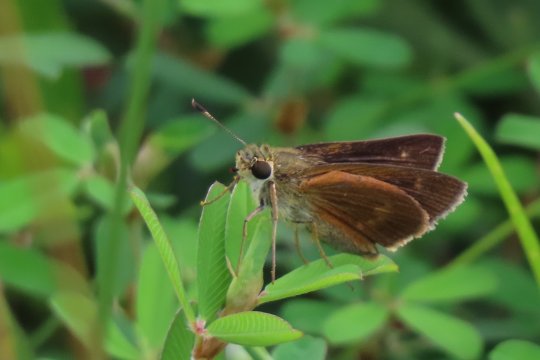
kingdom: Animalia
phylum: Arthropoda
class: Insecta
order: Lepidoptera
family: Hesperiidae
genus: Wallengrenia
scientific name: Wallengrenia otho
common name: Southern Broken-Dash
